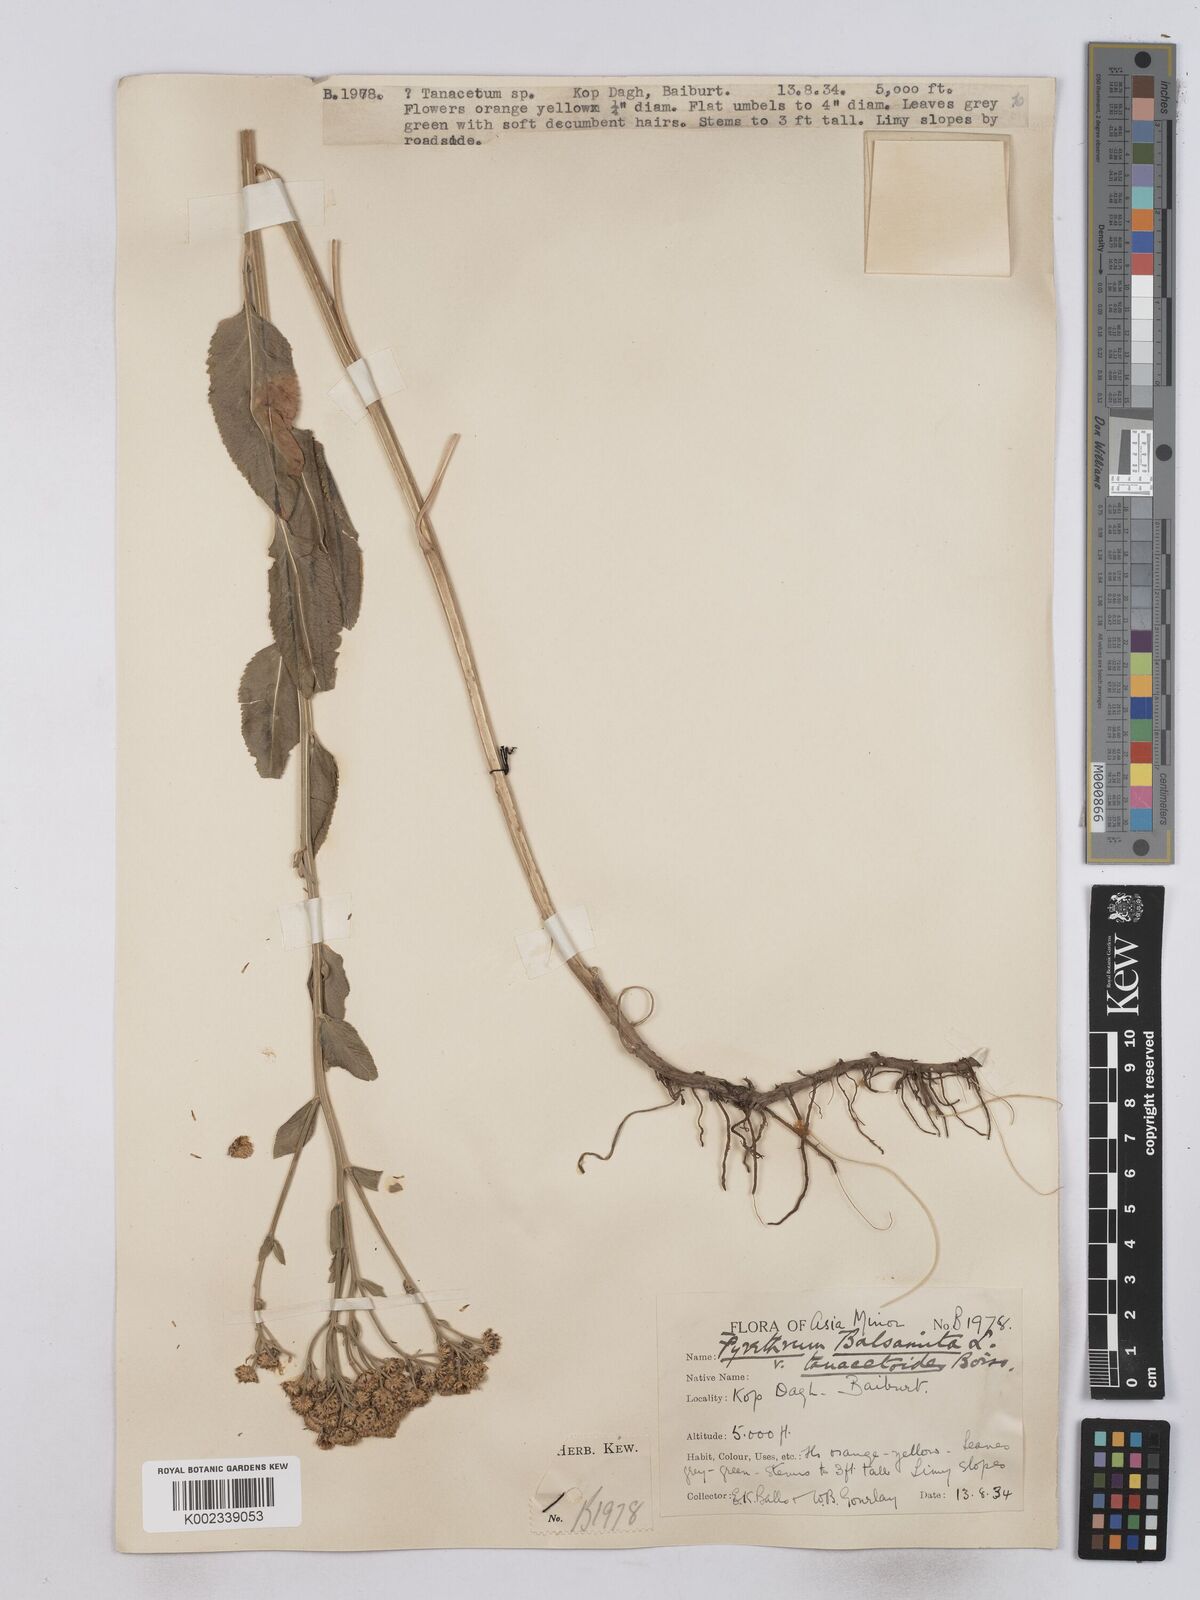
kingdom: Plantae
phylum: Tracheophyta
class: Magnoliopsida
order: Asterales
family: Asteraceae
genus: Tanacetum
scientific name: Tanacetum balsamita
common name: Costmary
